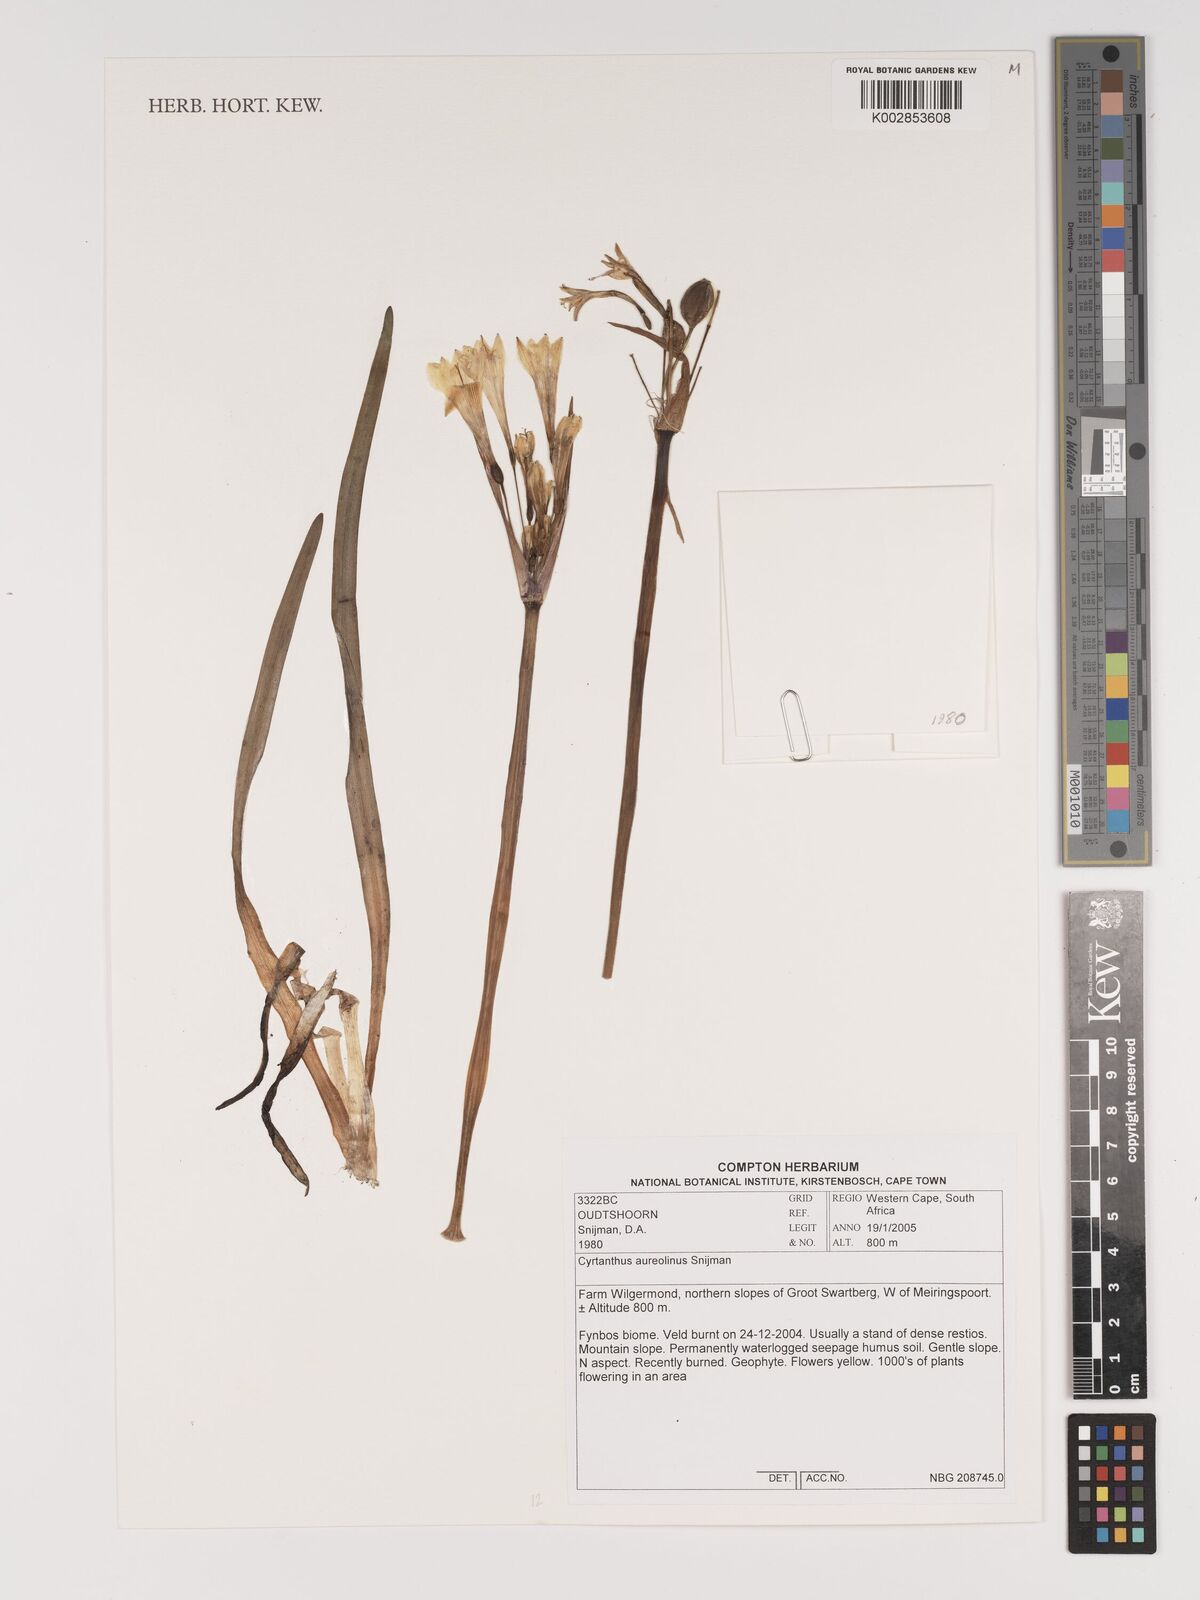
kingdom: Plantae
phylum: Tracheophyta
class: Liliopsida
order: Asparagales
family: Amaryllidaceae
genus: Cyrtanthus
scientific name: Cyrtanthus aureolinus
